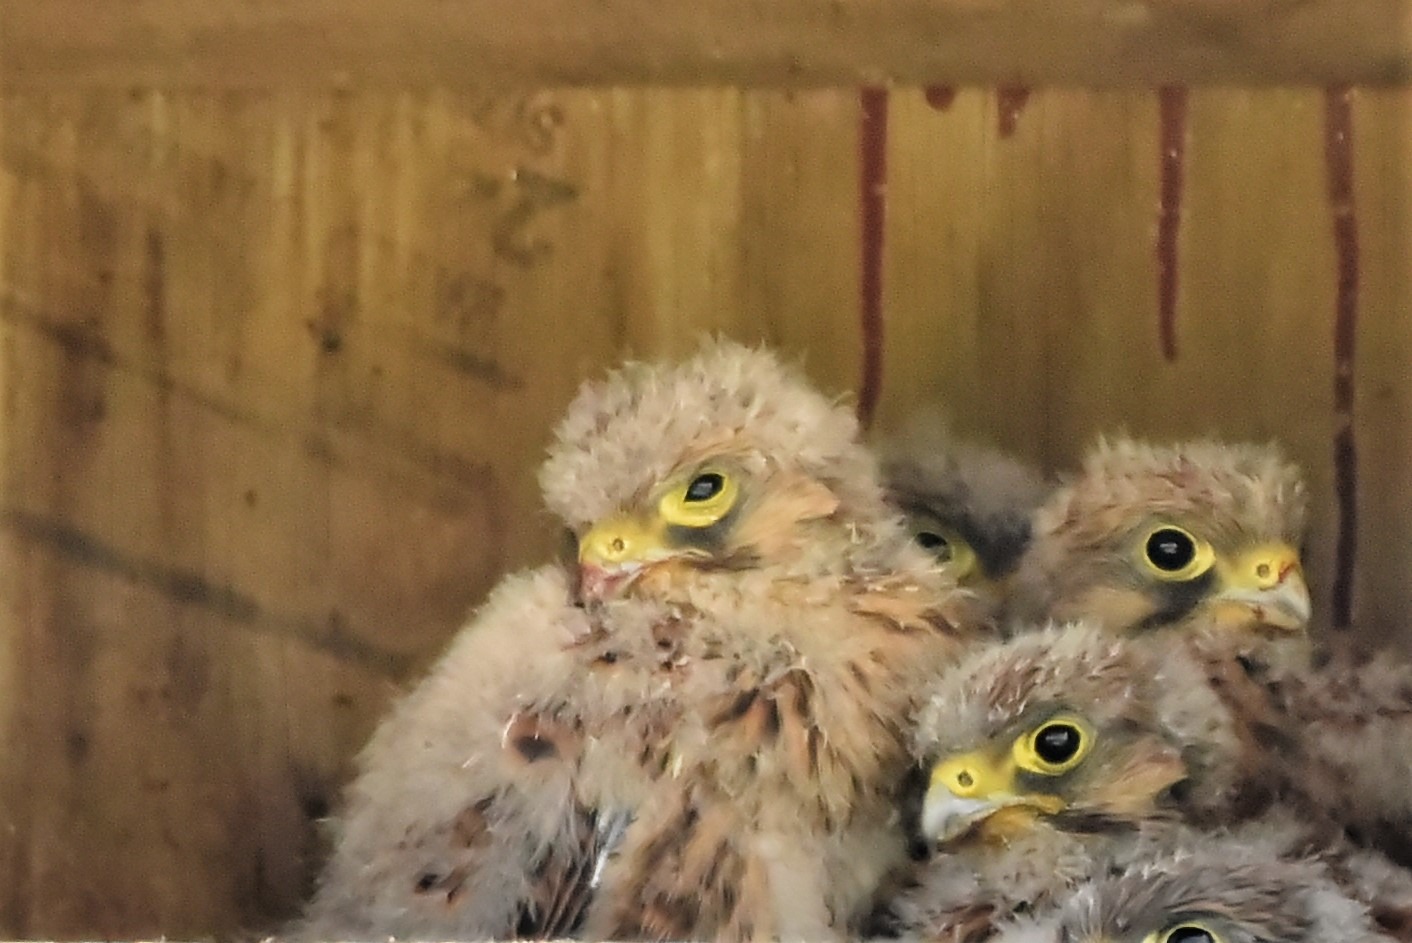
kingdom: Animalia
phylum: Chordata
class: Aves
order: Falconiformes
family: Falconidae
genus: Falco
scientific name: Falco tinnunculus
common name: Tårnfalk
